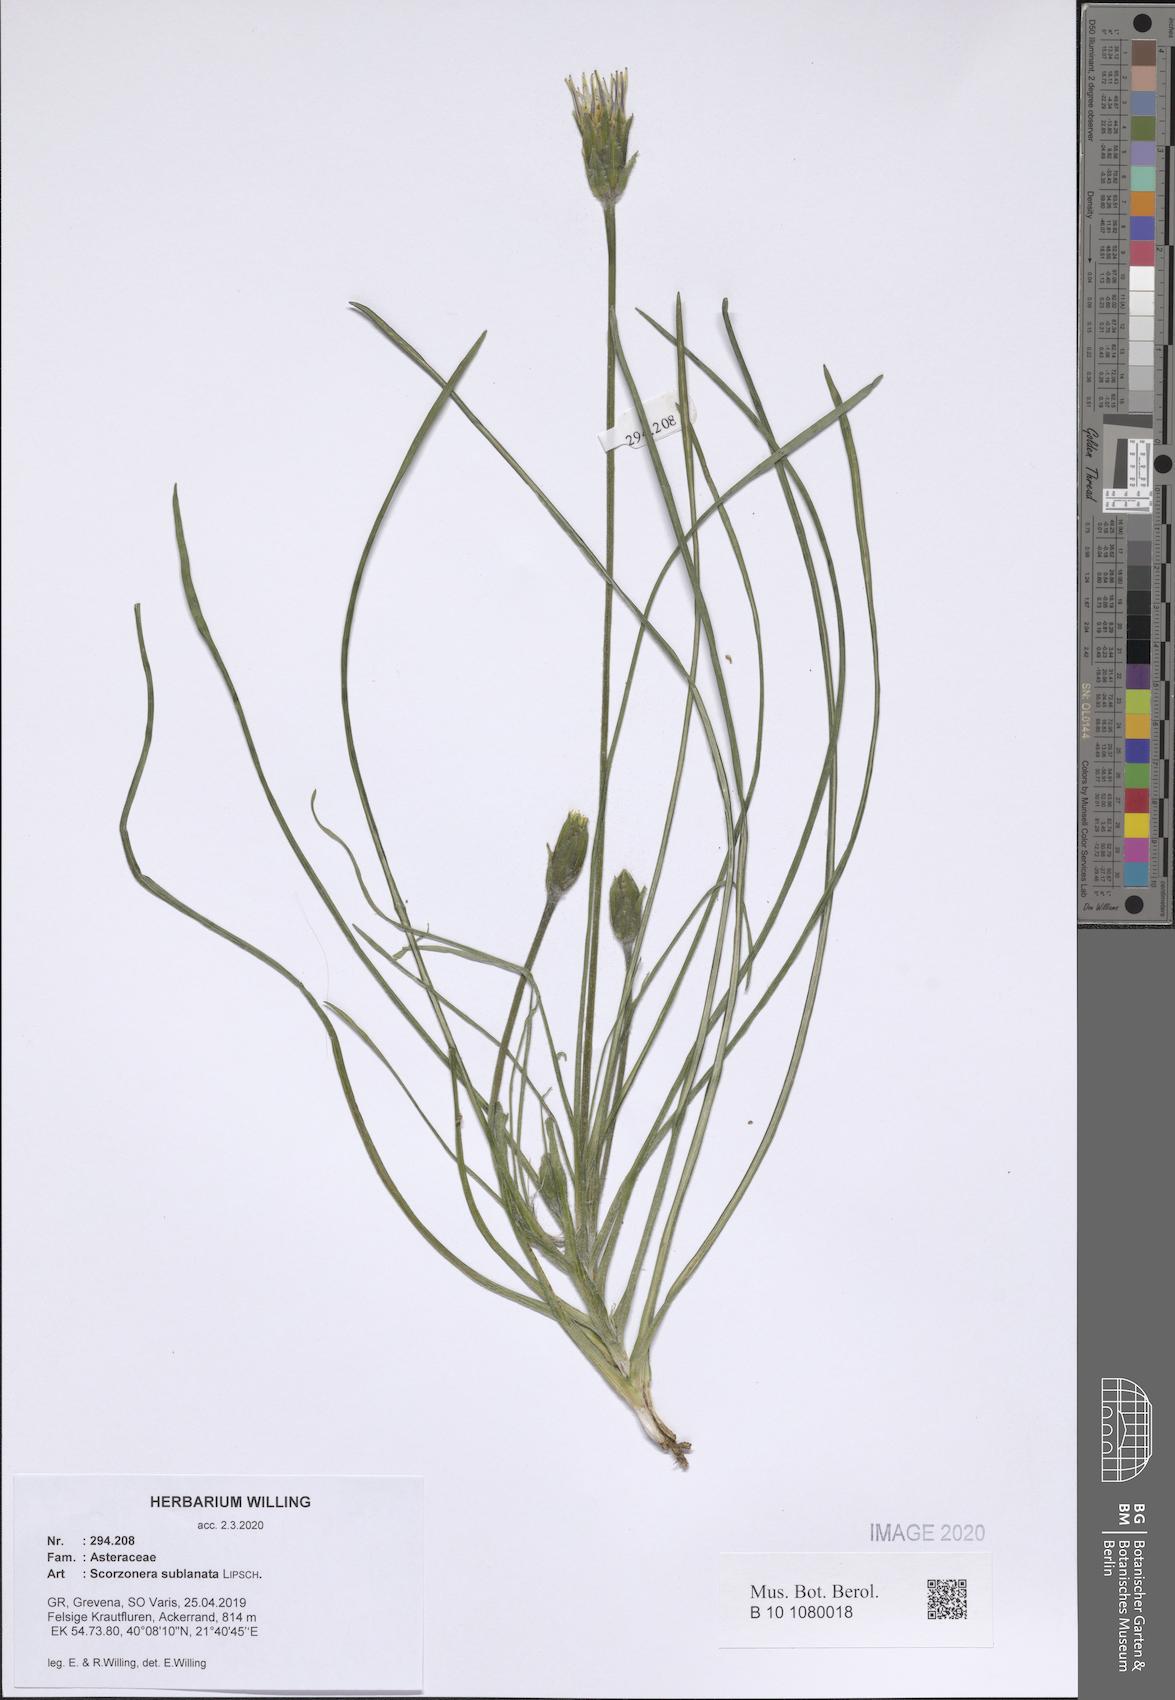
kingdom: Plantae
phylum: Tracheophyta
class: Magnoliopsida
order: Asterales
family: Asteraceae
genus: Bocquetia
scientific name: Bocquetia sublanata
